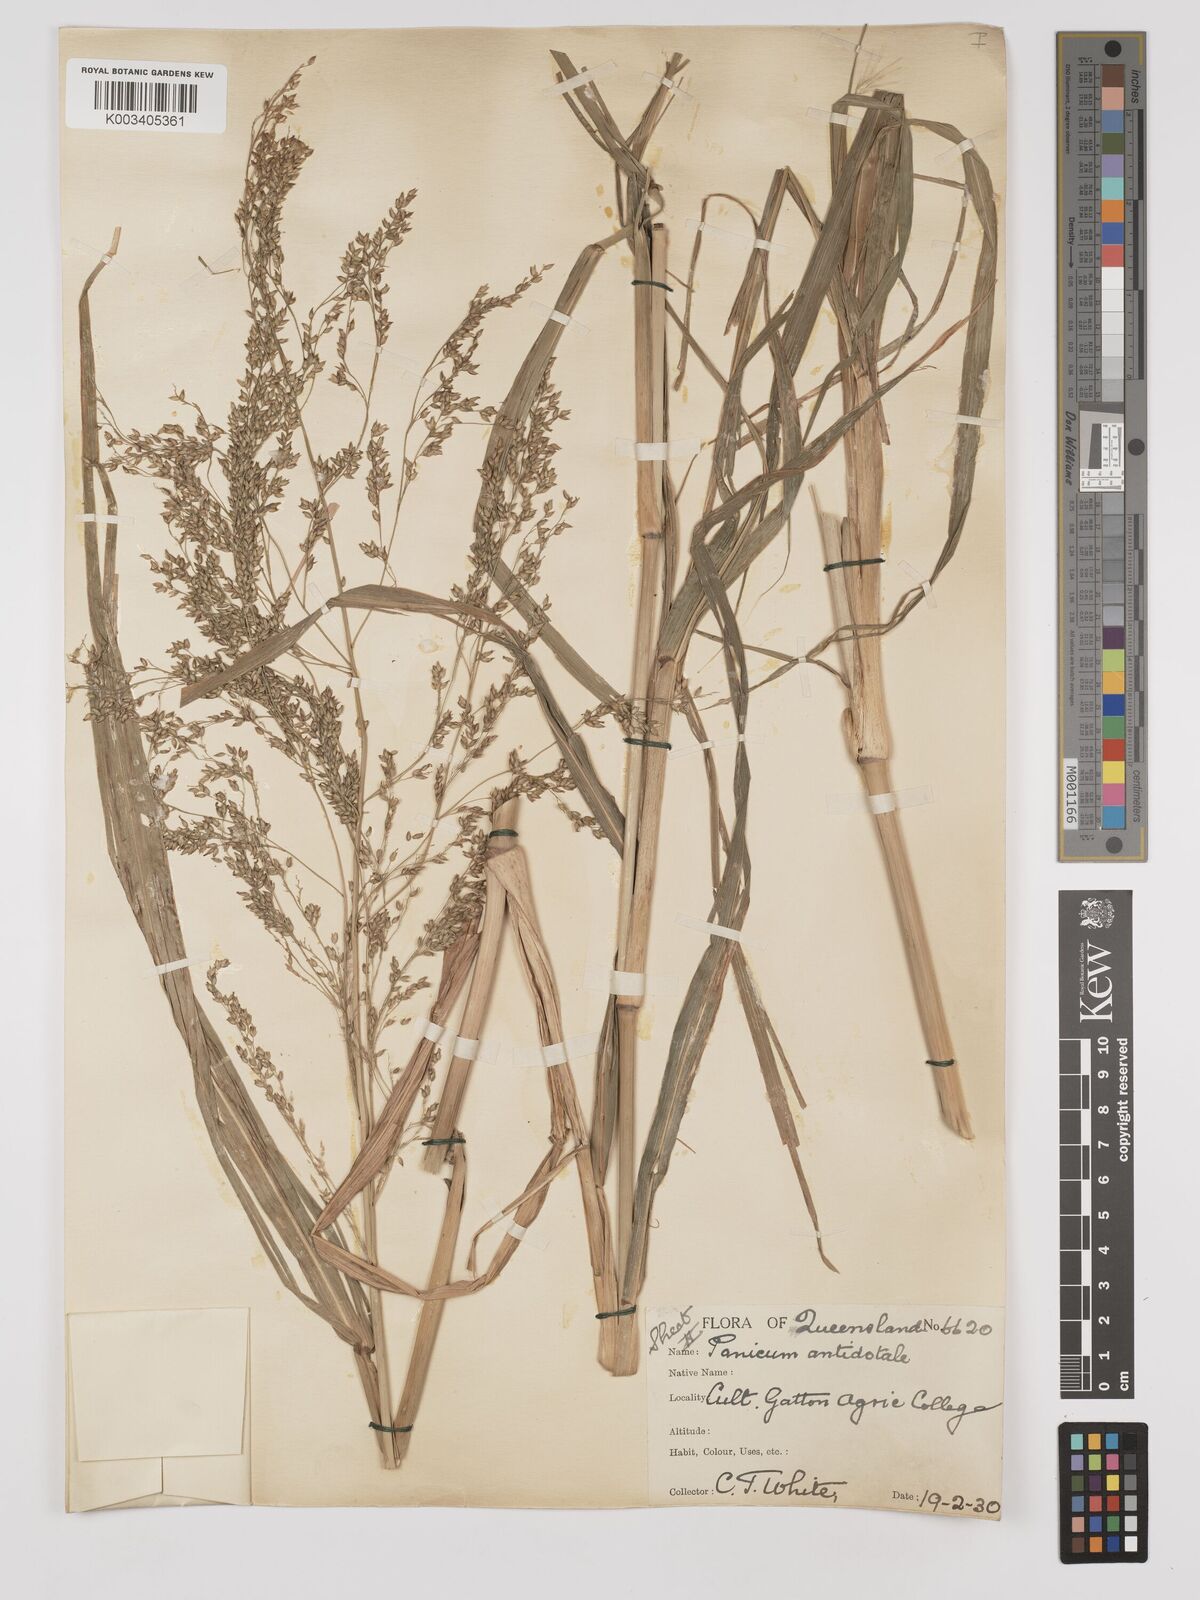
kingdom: Plantae
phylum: Tracheophyta
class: Liliopsida
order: Poales
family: Poaceae
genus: Panicum
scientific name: Panicum antidotale
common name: Blue panicum
